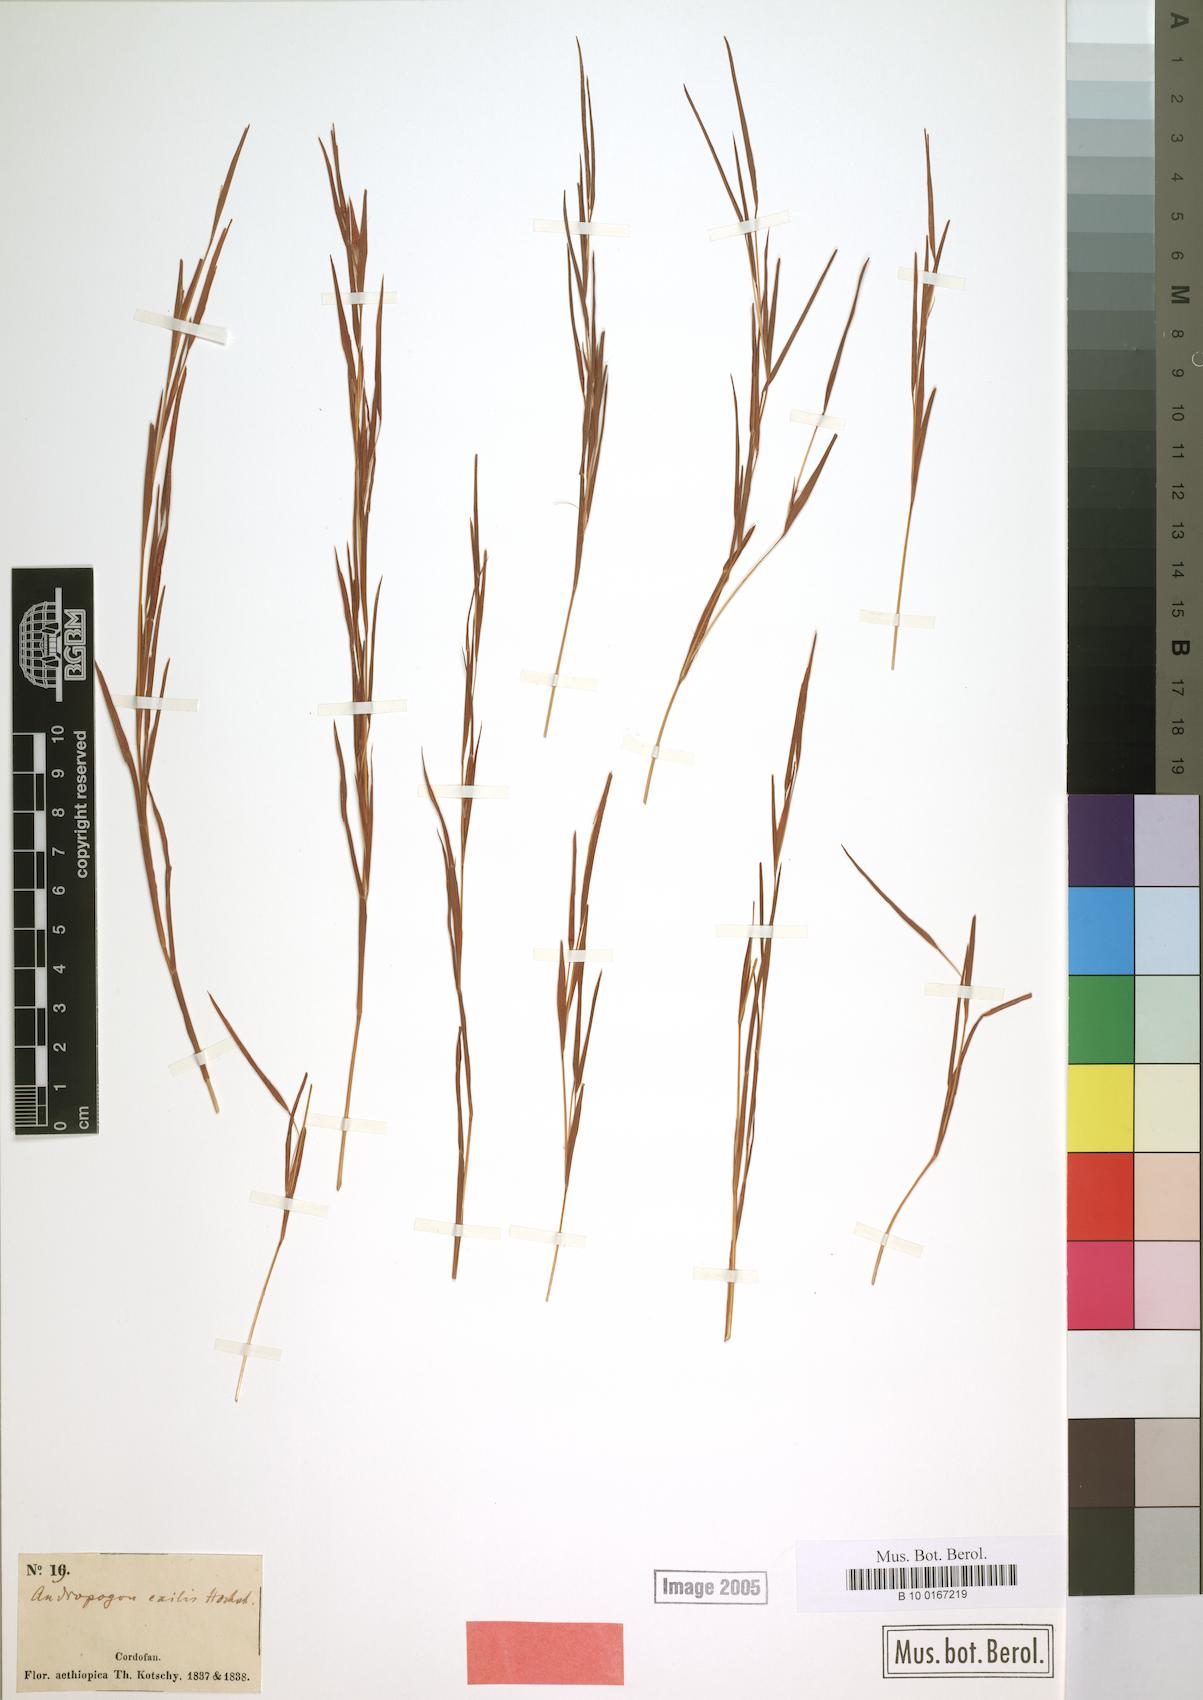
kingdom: Plantae
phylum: Tracheophyta
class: Liliopsida
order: Poales
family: Poaceae
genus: Schizachyrium
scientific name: Schizachyrium exile
